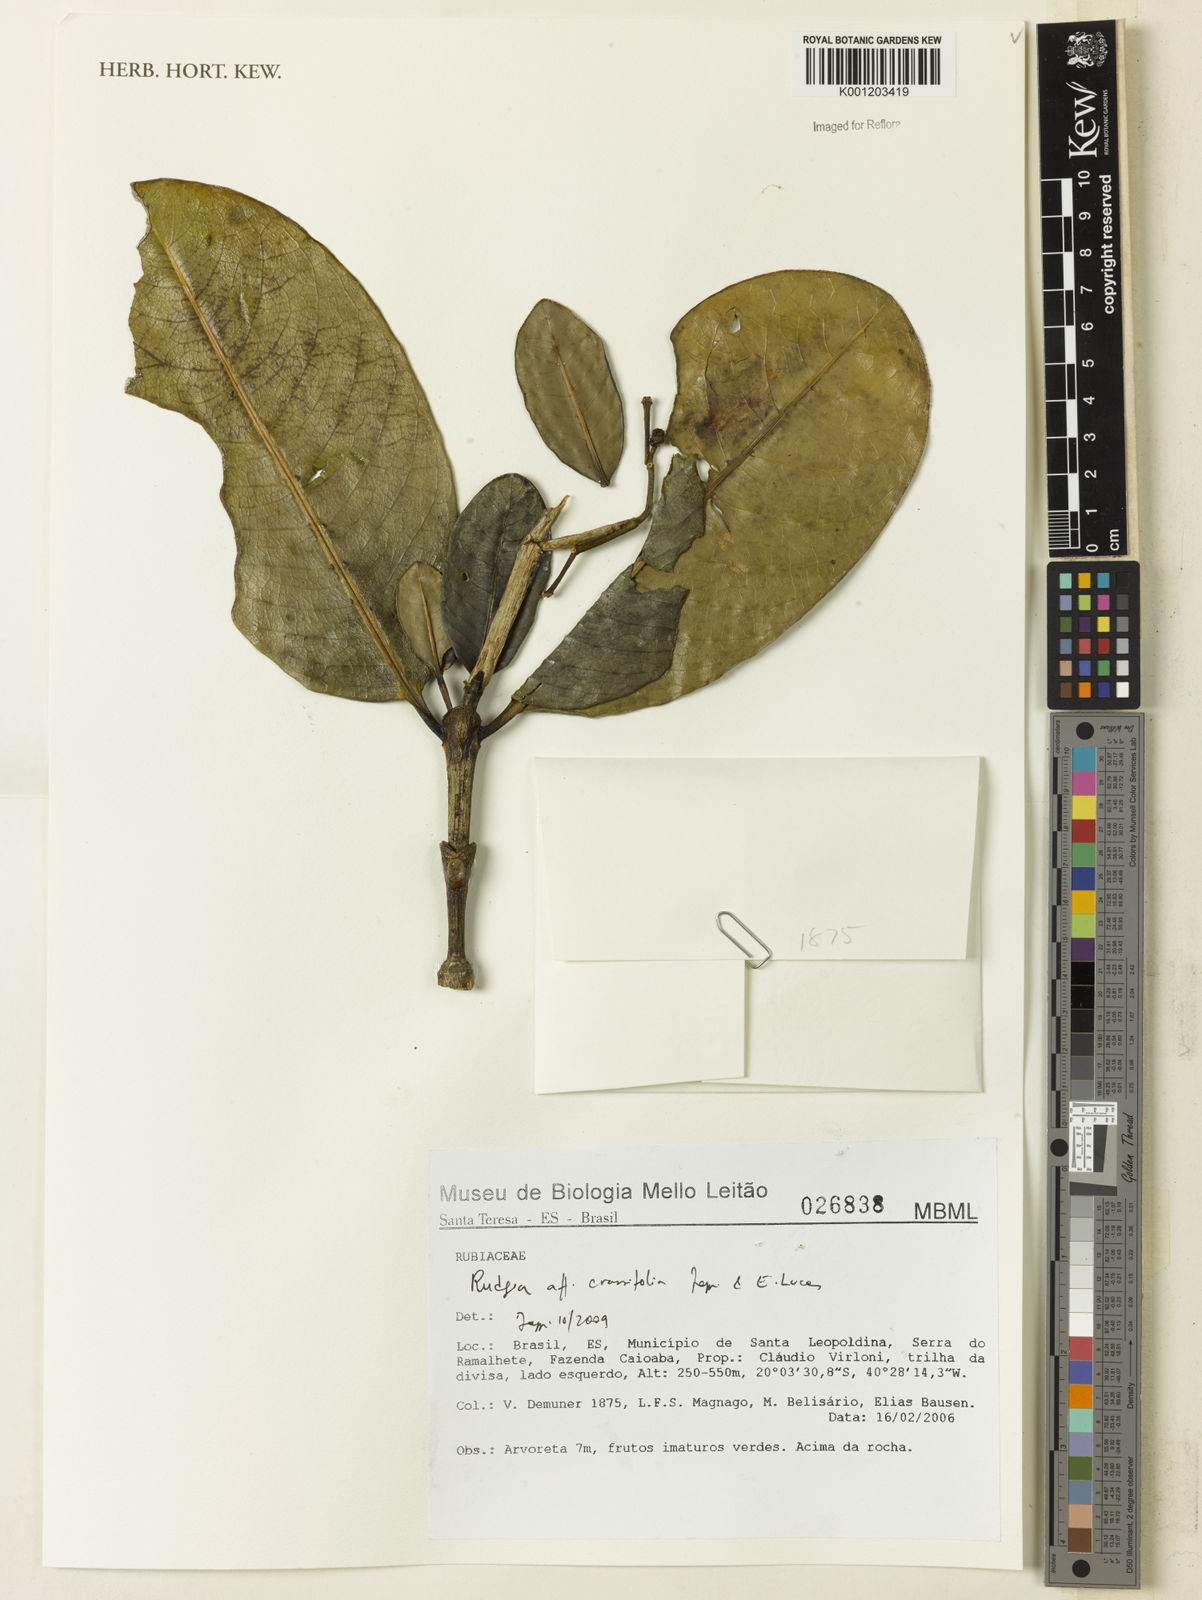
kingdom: Plantae
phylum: Tracheophyta
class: Magnoliopsida
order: Gentianales
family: Rubiaceae
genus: Rudgea
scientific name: Rudgea crassifolia
